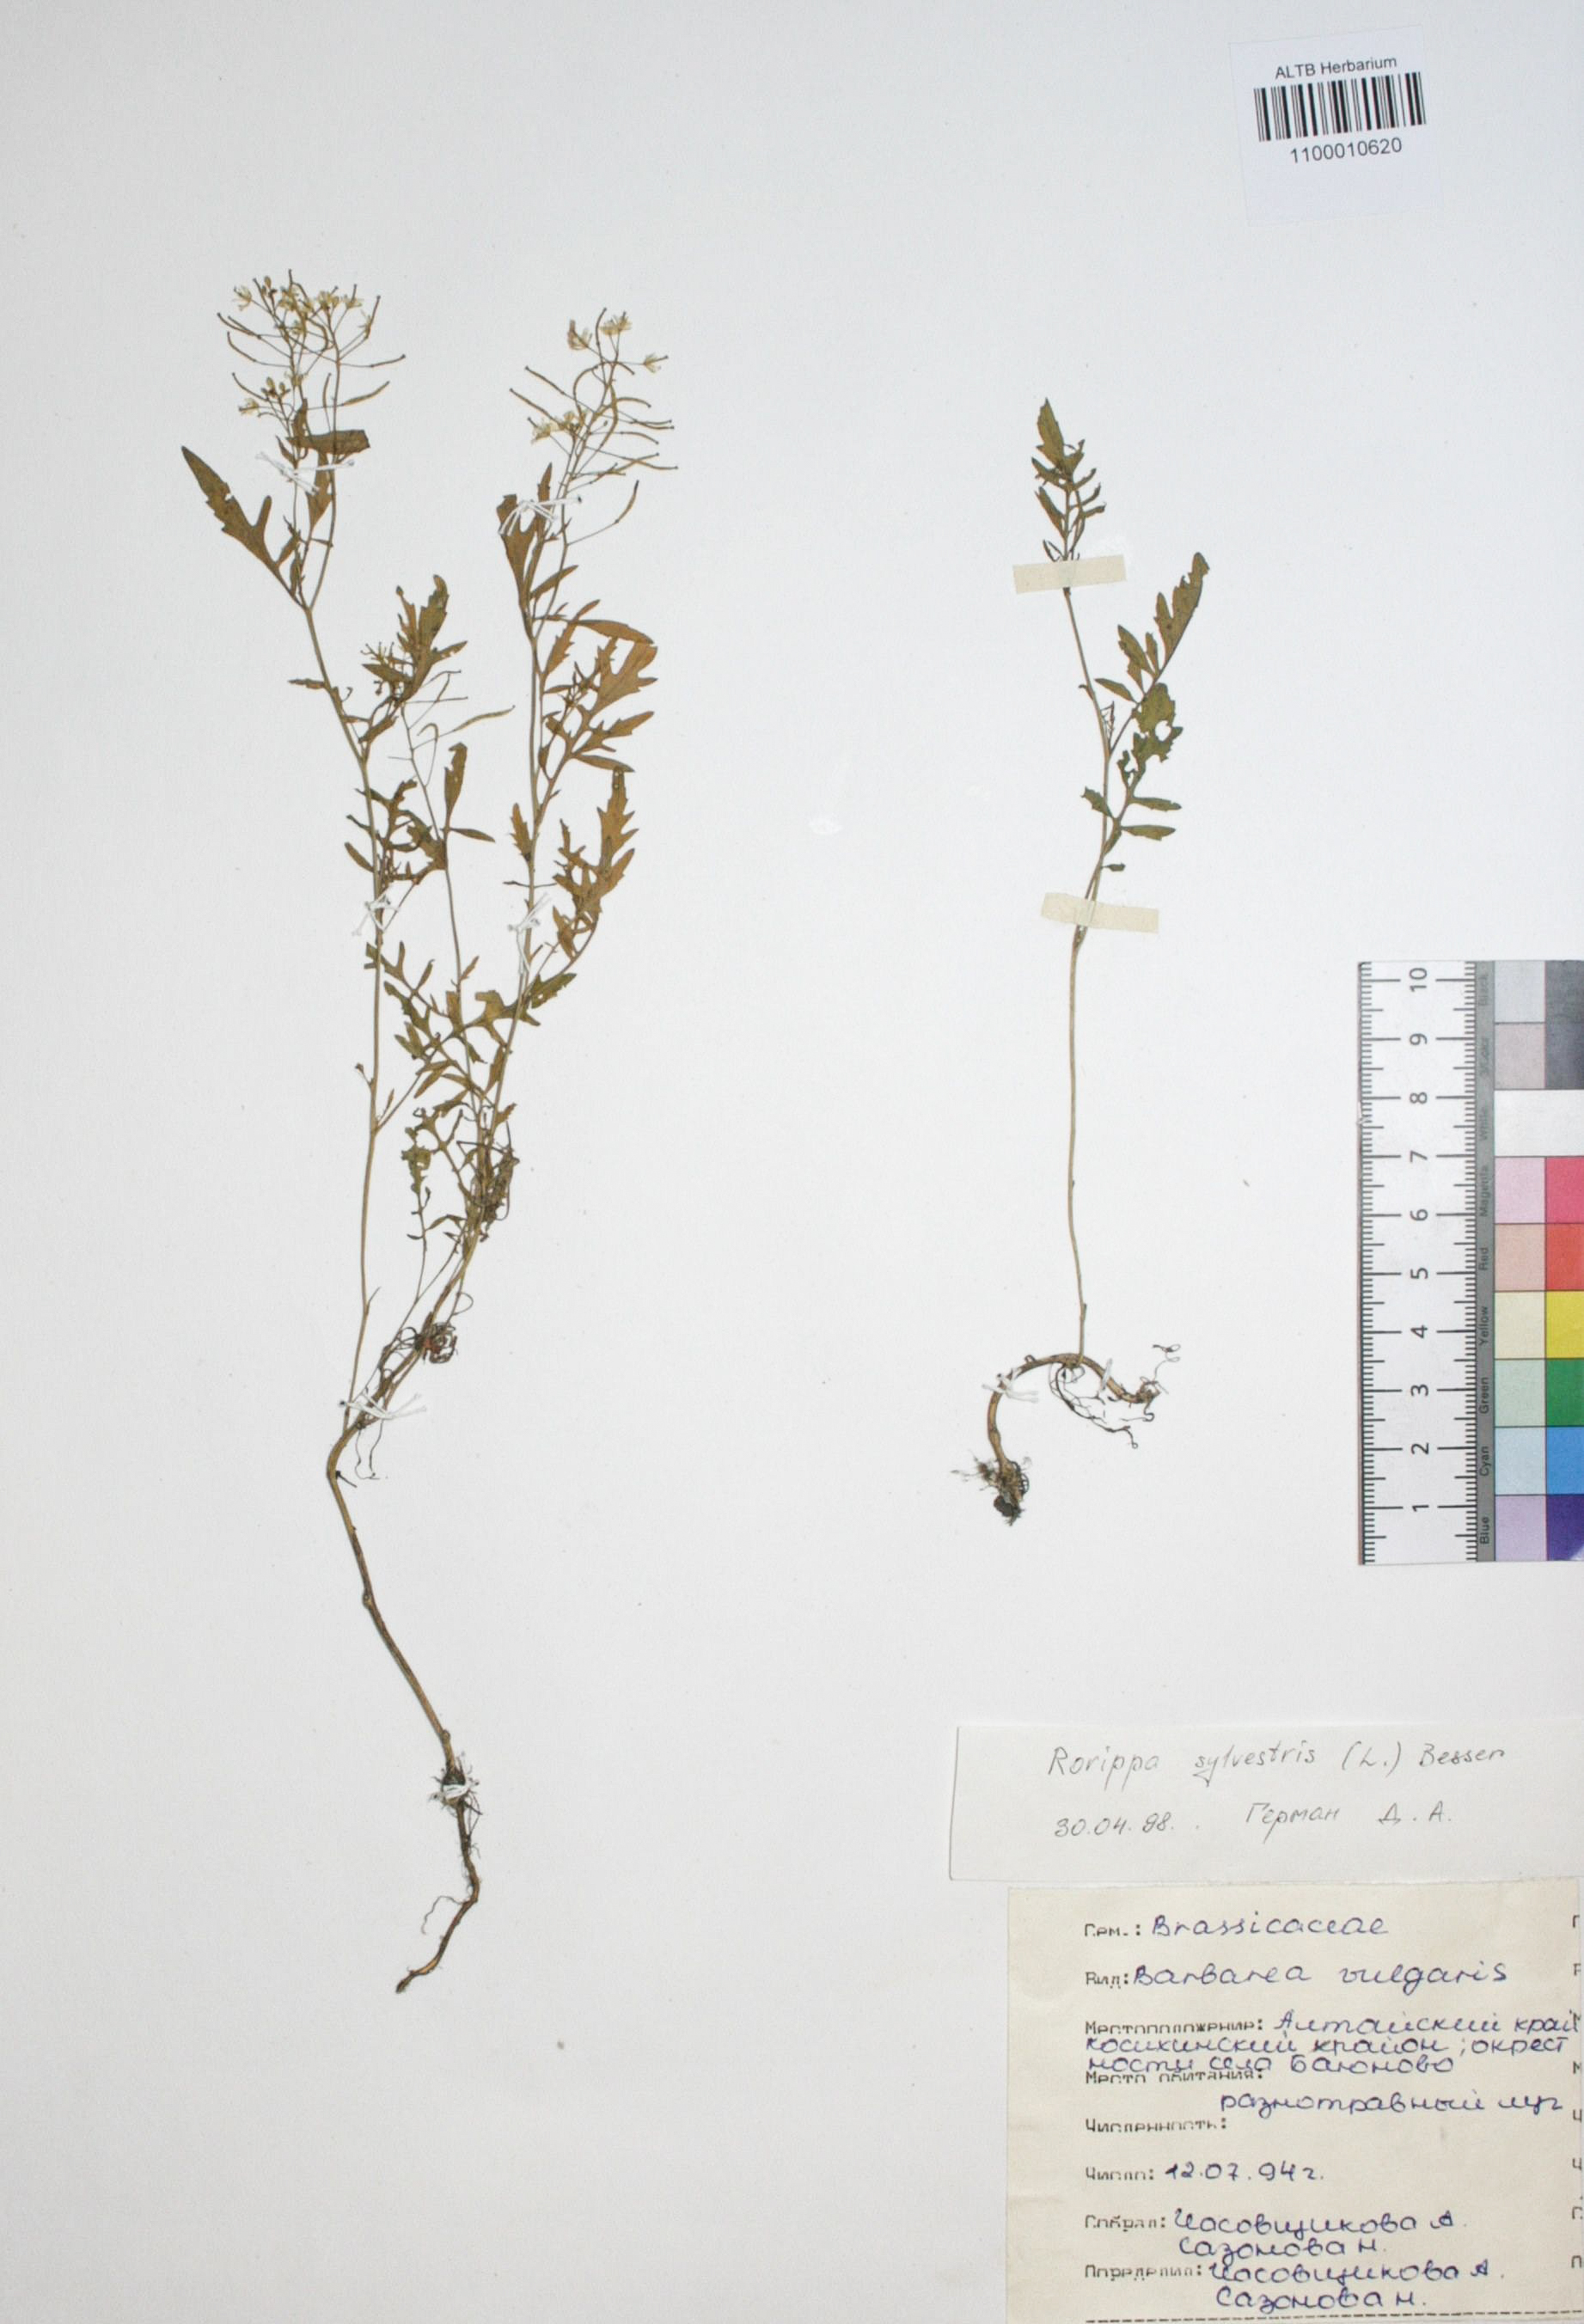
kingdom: Plantae
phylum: Tracheophyta
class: Magnoliopsida
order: Brassicales
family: Brassicaceae
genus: Rorippa
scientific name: Rorippa sylvestris
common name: Creeping yellowcress
